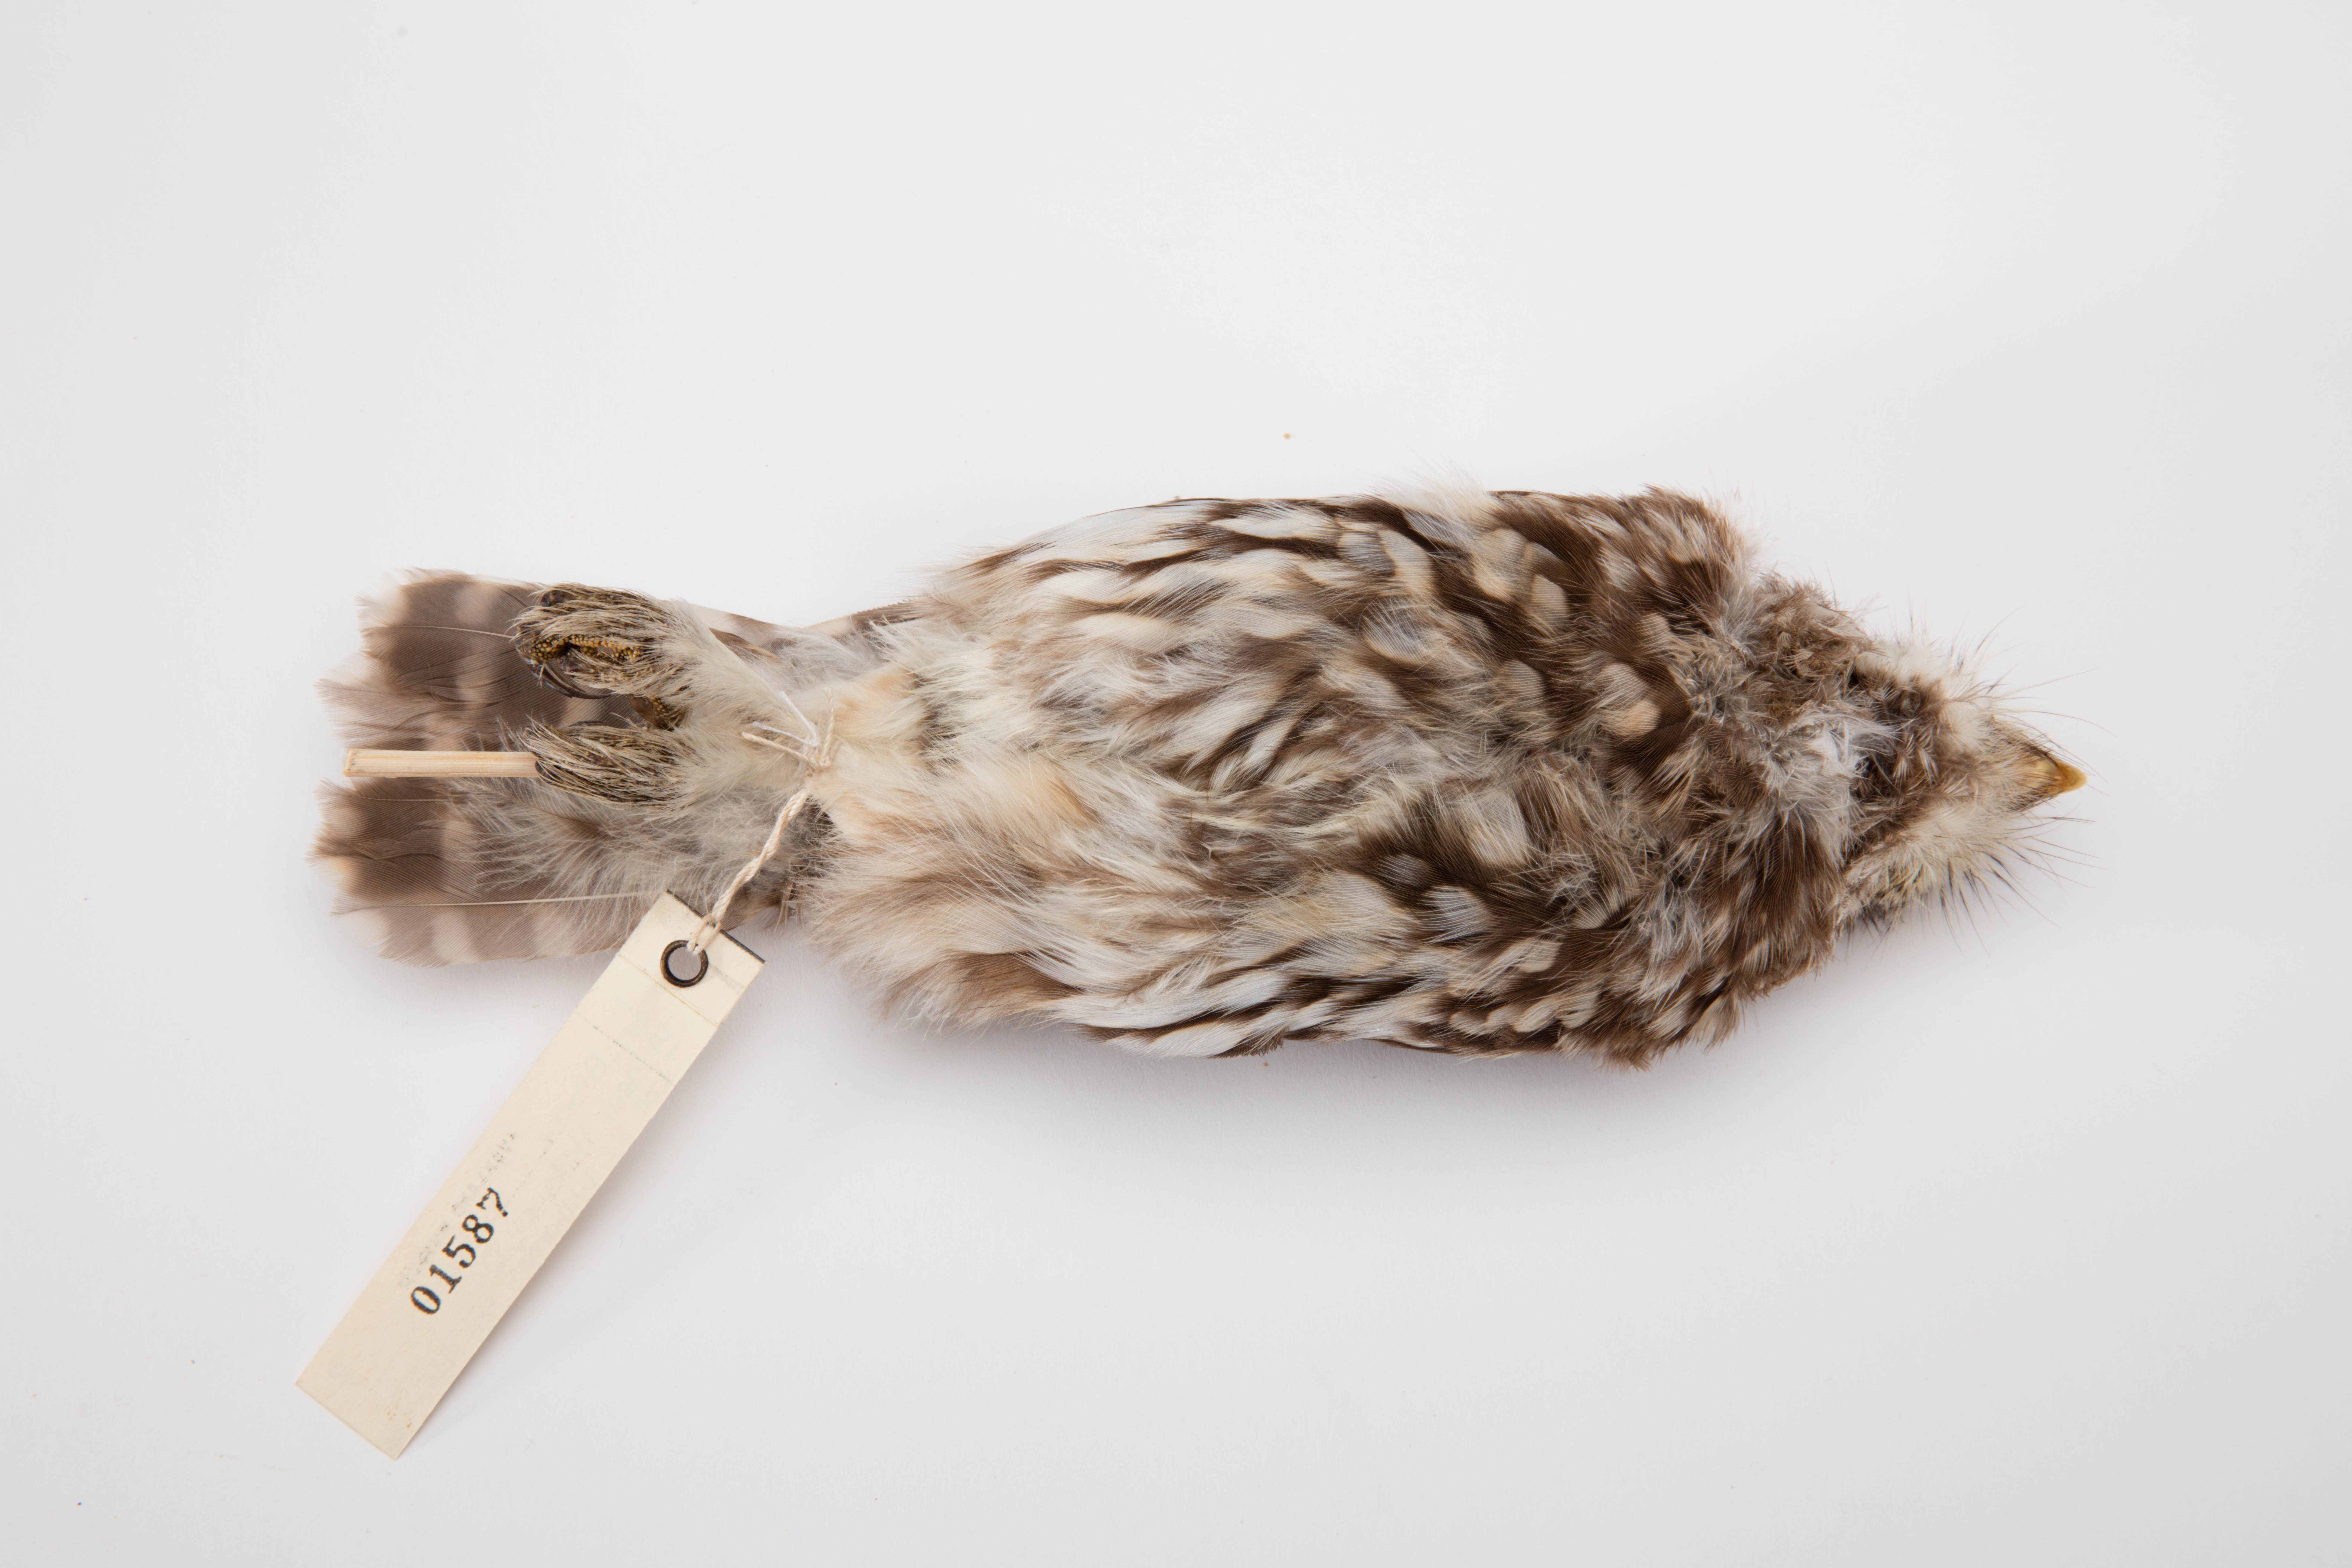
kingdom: Animalia
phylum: Chordata
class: Aves
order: Strigiformes
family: Strigidae
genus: Athene
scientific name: Athene noctua
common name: Little owl
